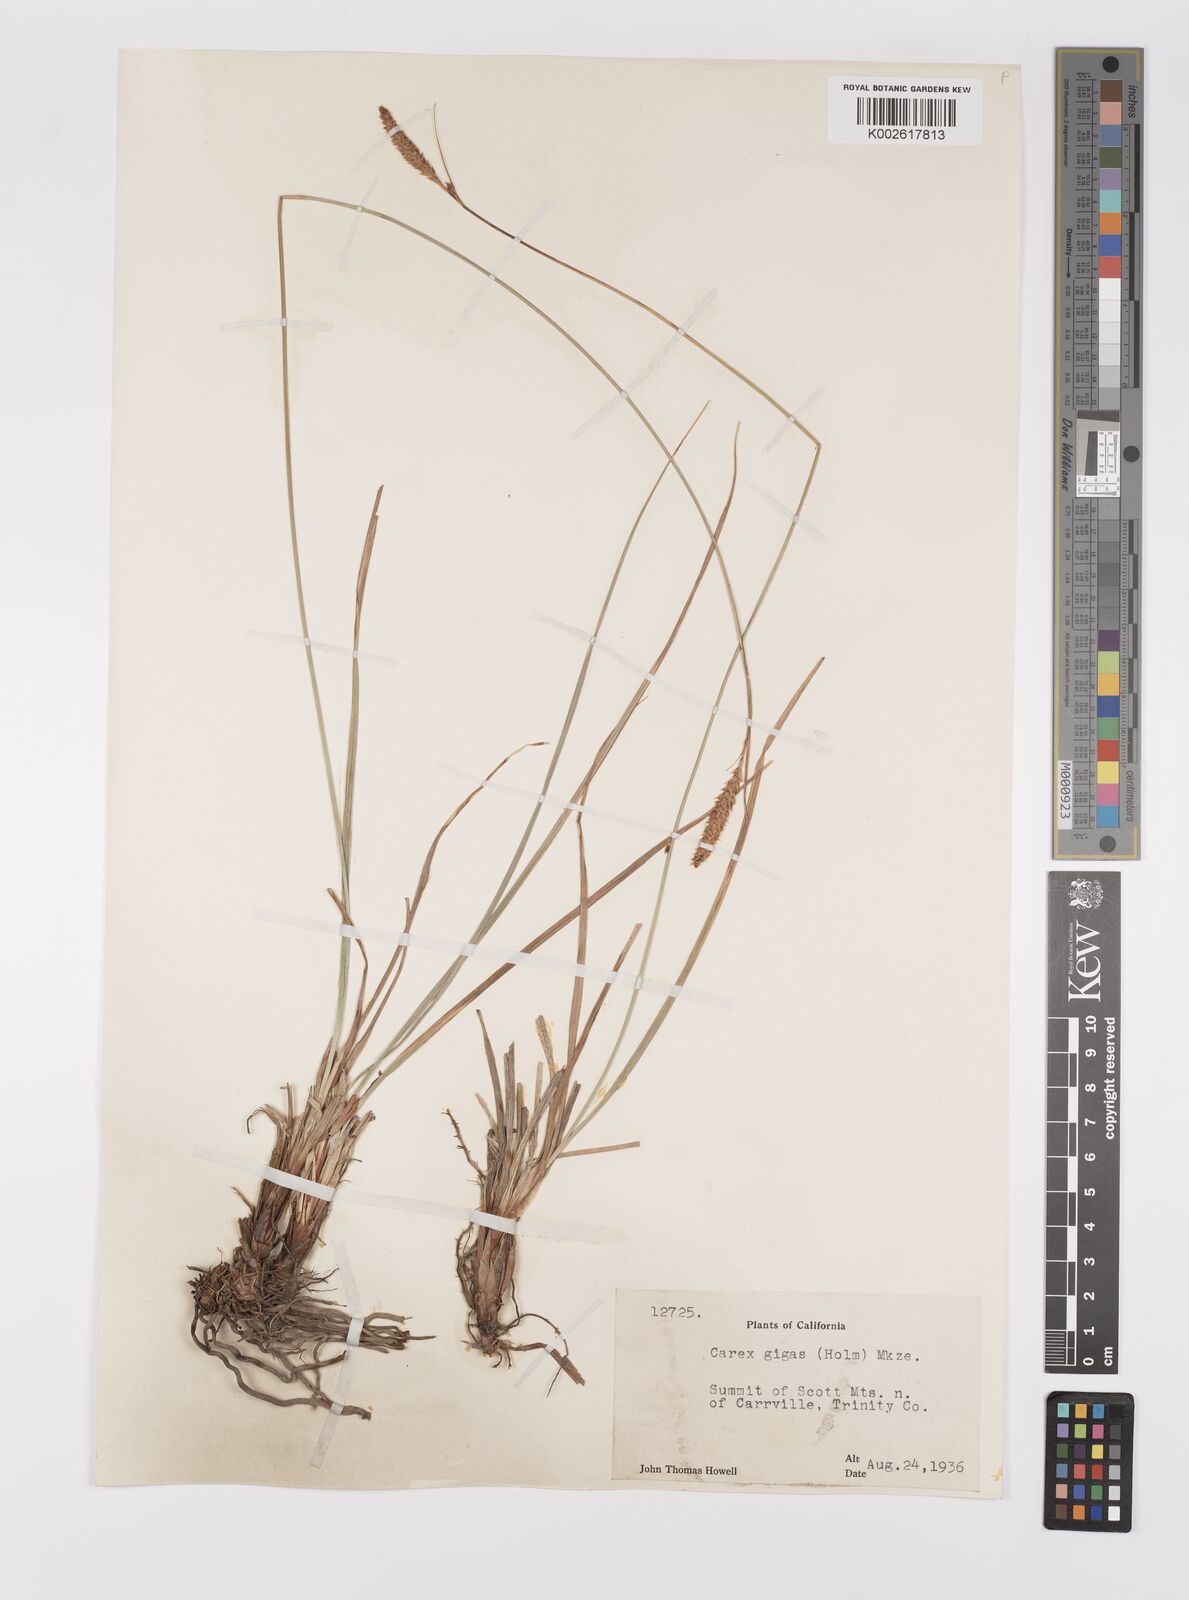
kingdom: Plantae
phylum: Tracheophyta
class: Liliopsida
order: Poales
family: Cyperaceae
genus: Carex
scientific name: Carex scabriuscula
